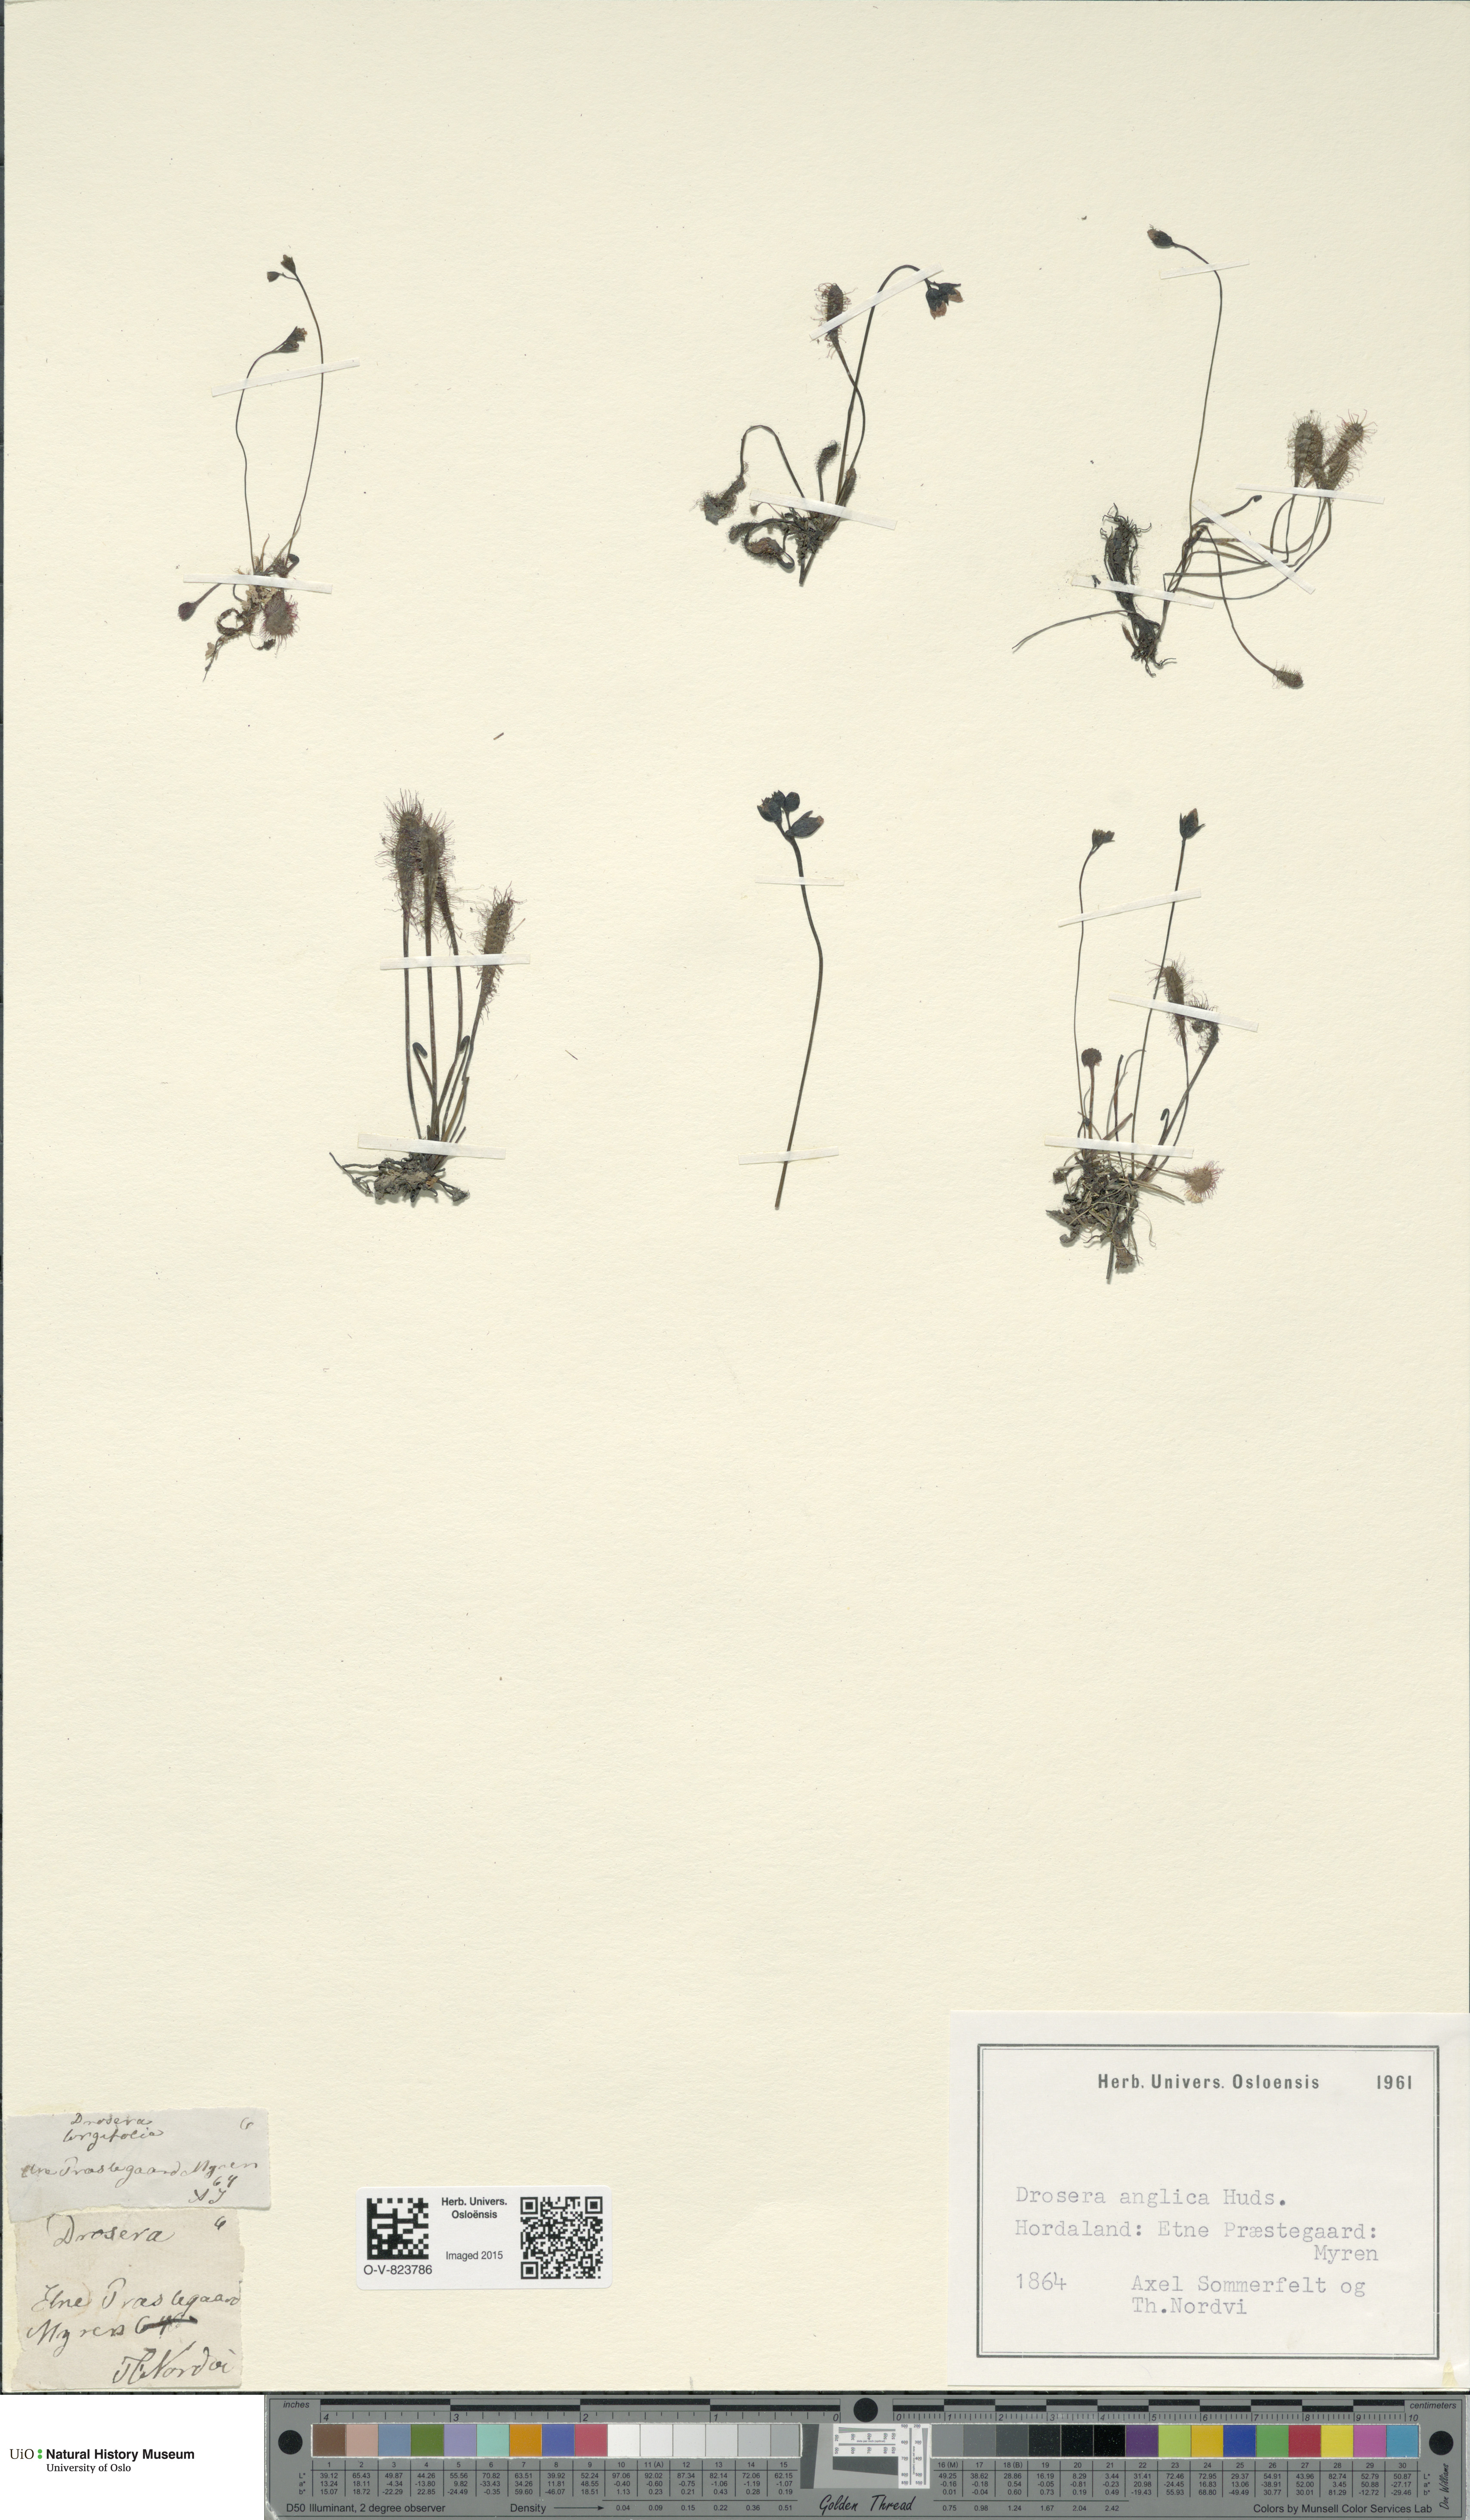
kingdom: Plantae
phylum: Tracheophyta
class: Magnoliopsida
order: Caryophyllales
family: Droseraceae
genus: Drosera
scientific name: Drosera anglica
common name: Great sundew
